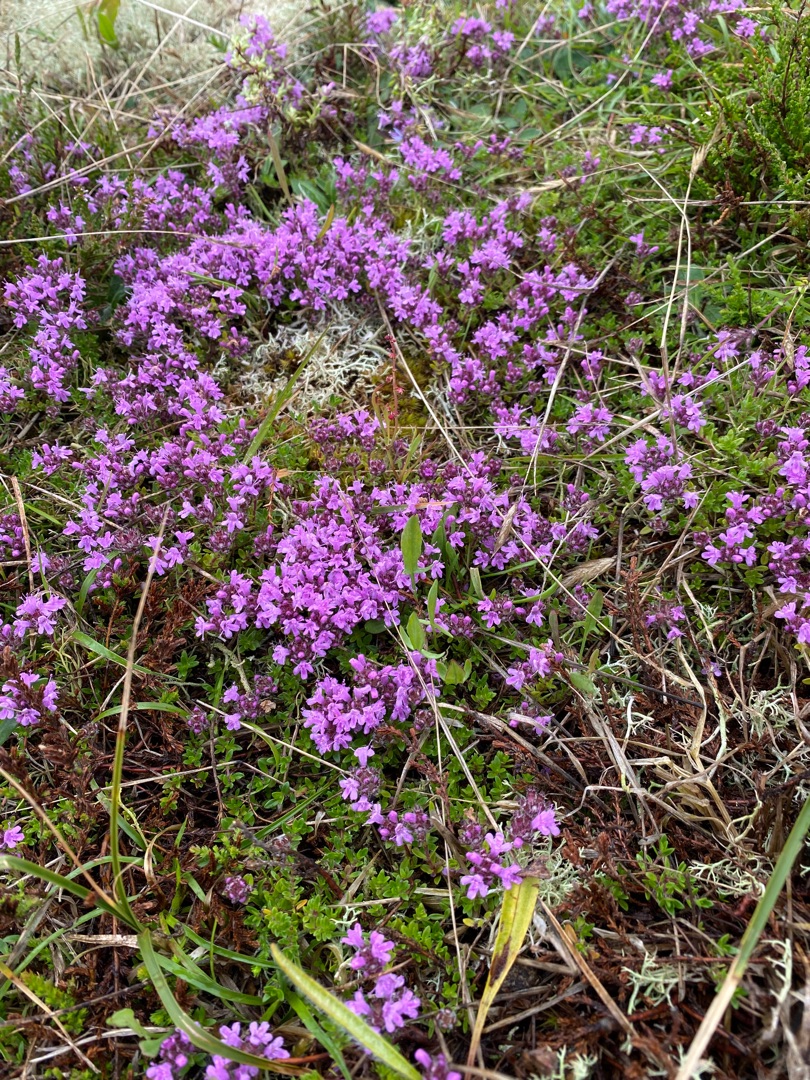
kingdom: Plantae
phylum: Tracheophyta
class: Magnoliopsida
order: Lamiales
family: Lamiaceae
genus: Thymus
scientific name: Thymus serpyllum
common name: Smalbladet timian
